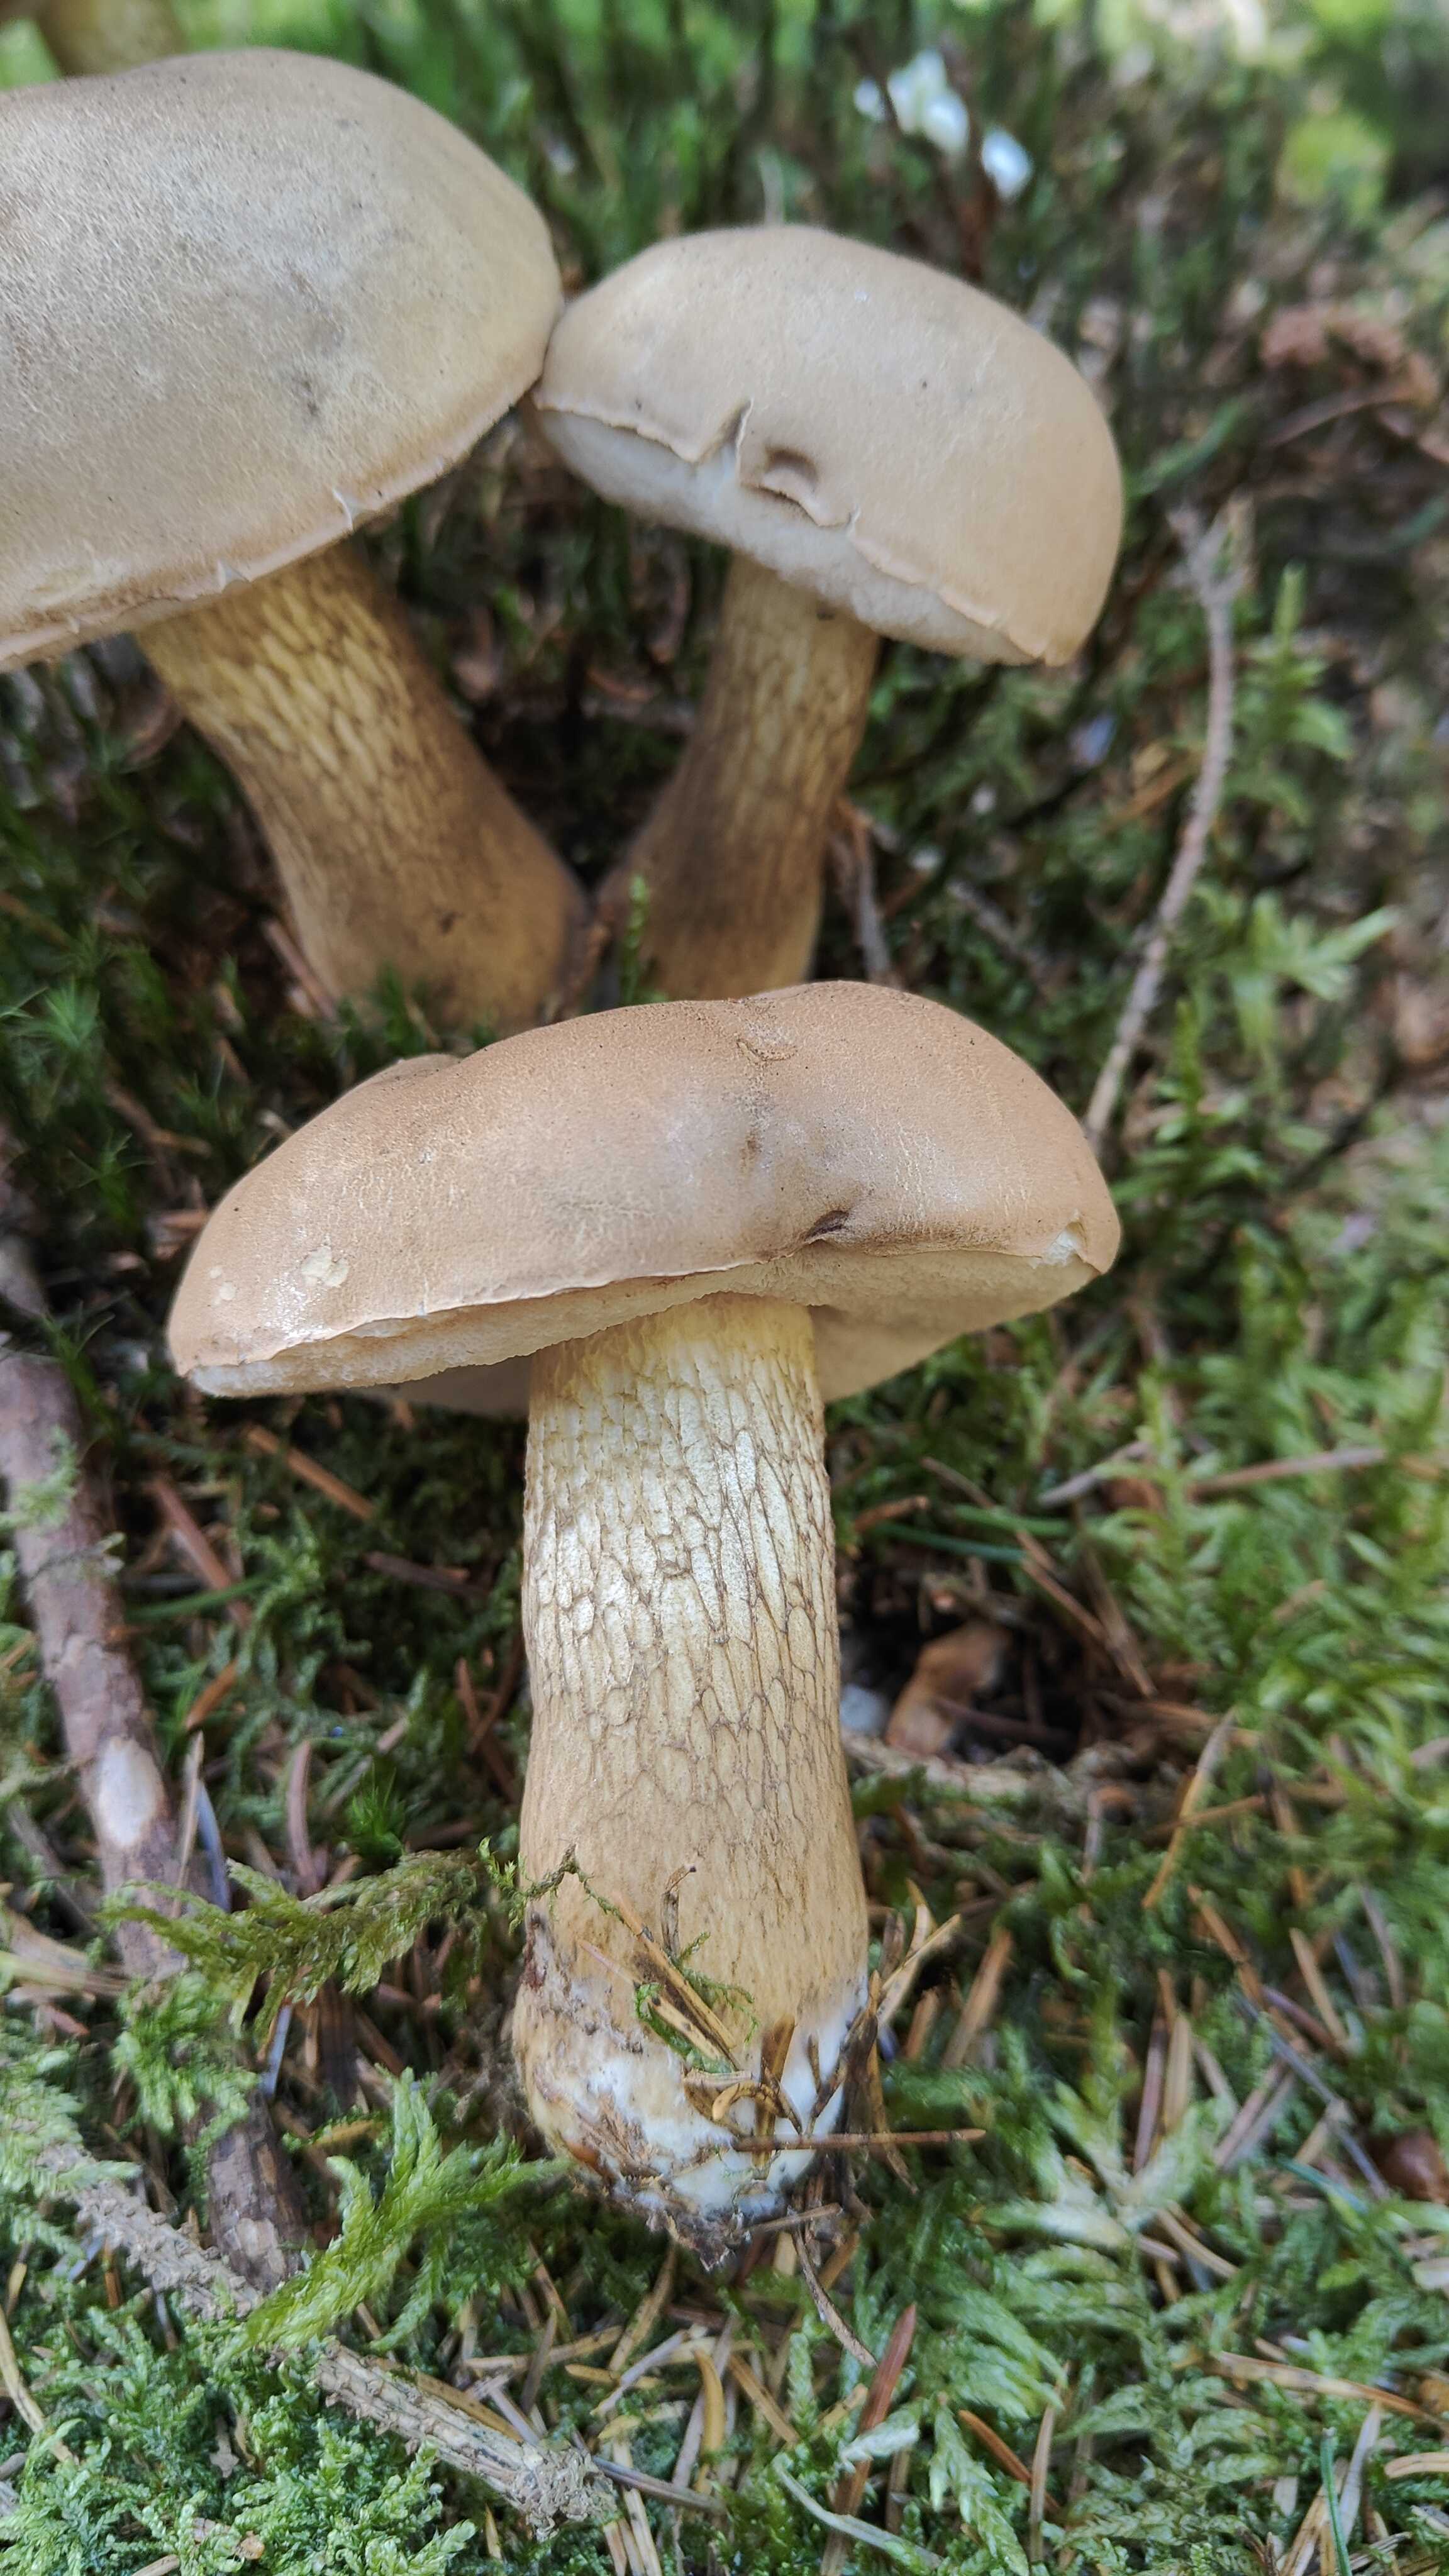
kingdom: Fungi
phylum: Basidiomycota
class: Agaricomycetes
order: Boletales
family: Boletaceae
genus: Tylopilus
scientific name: Tylopilus felleus
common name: galderørhat
